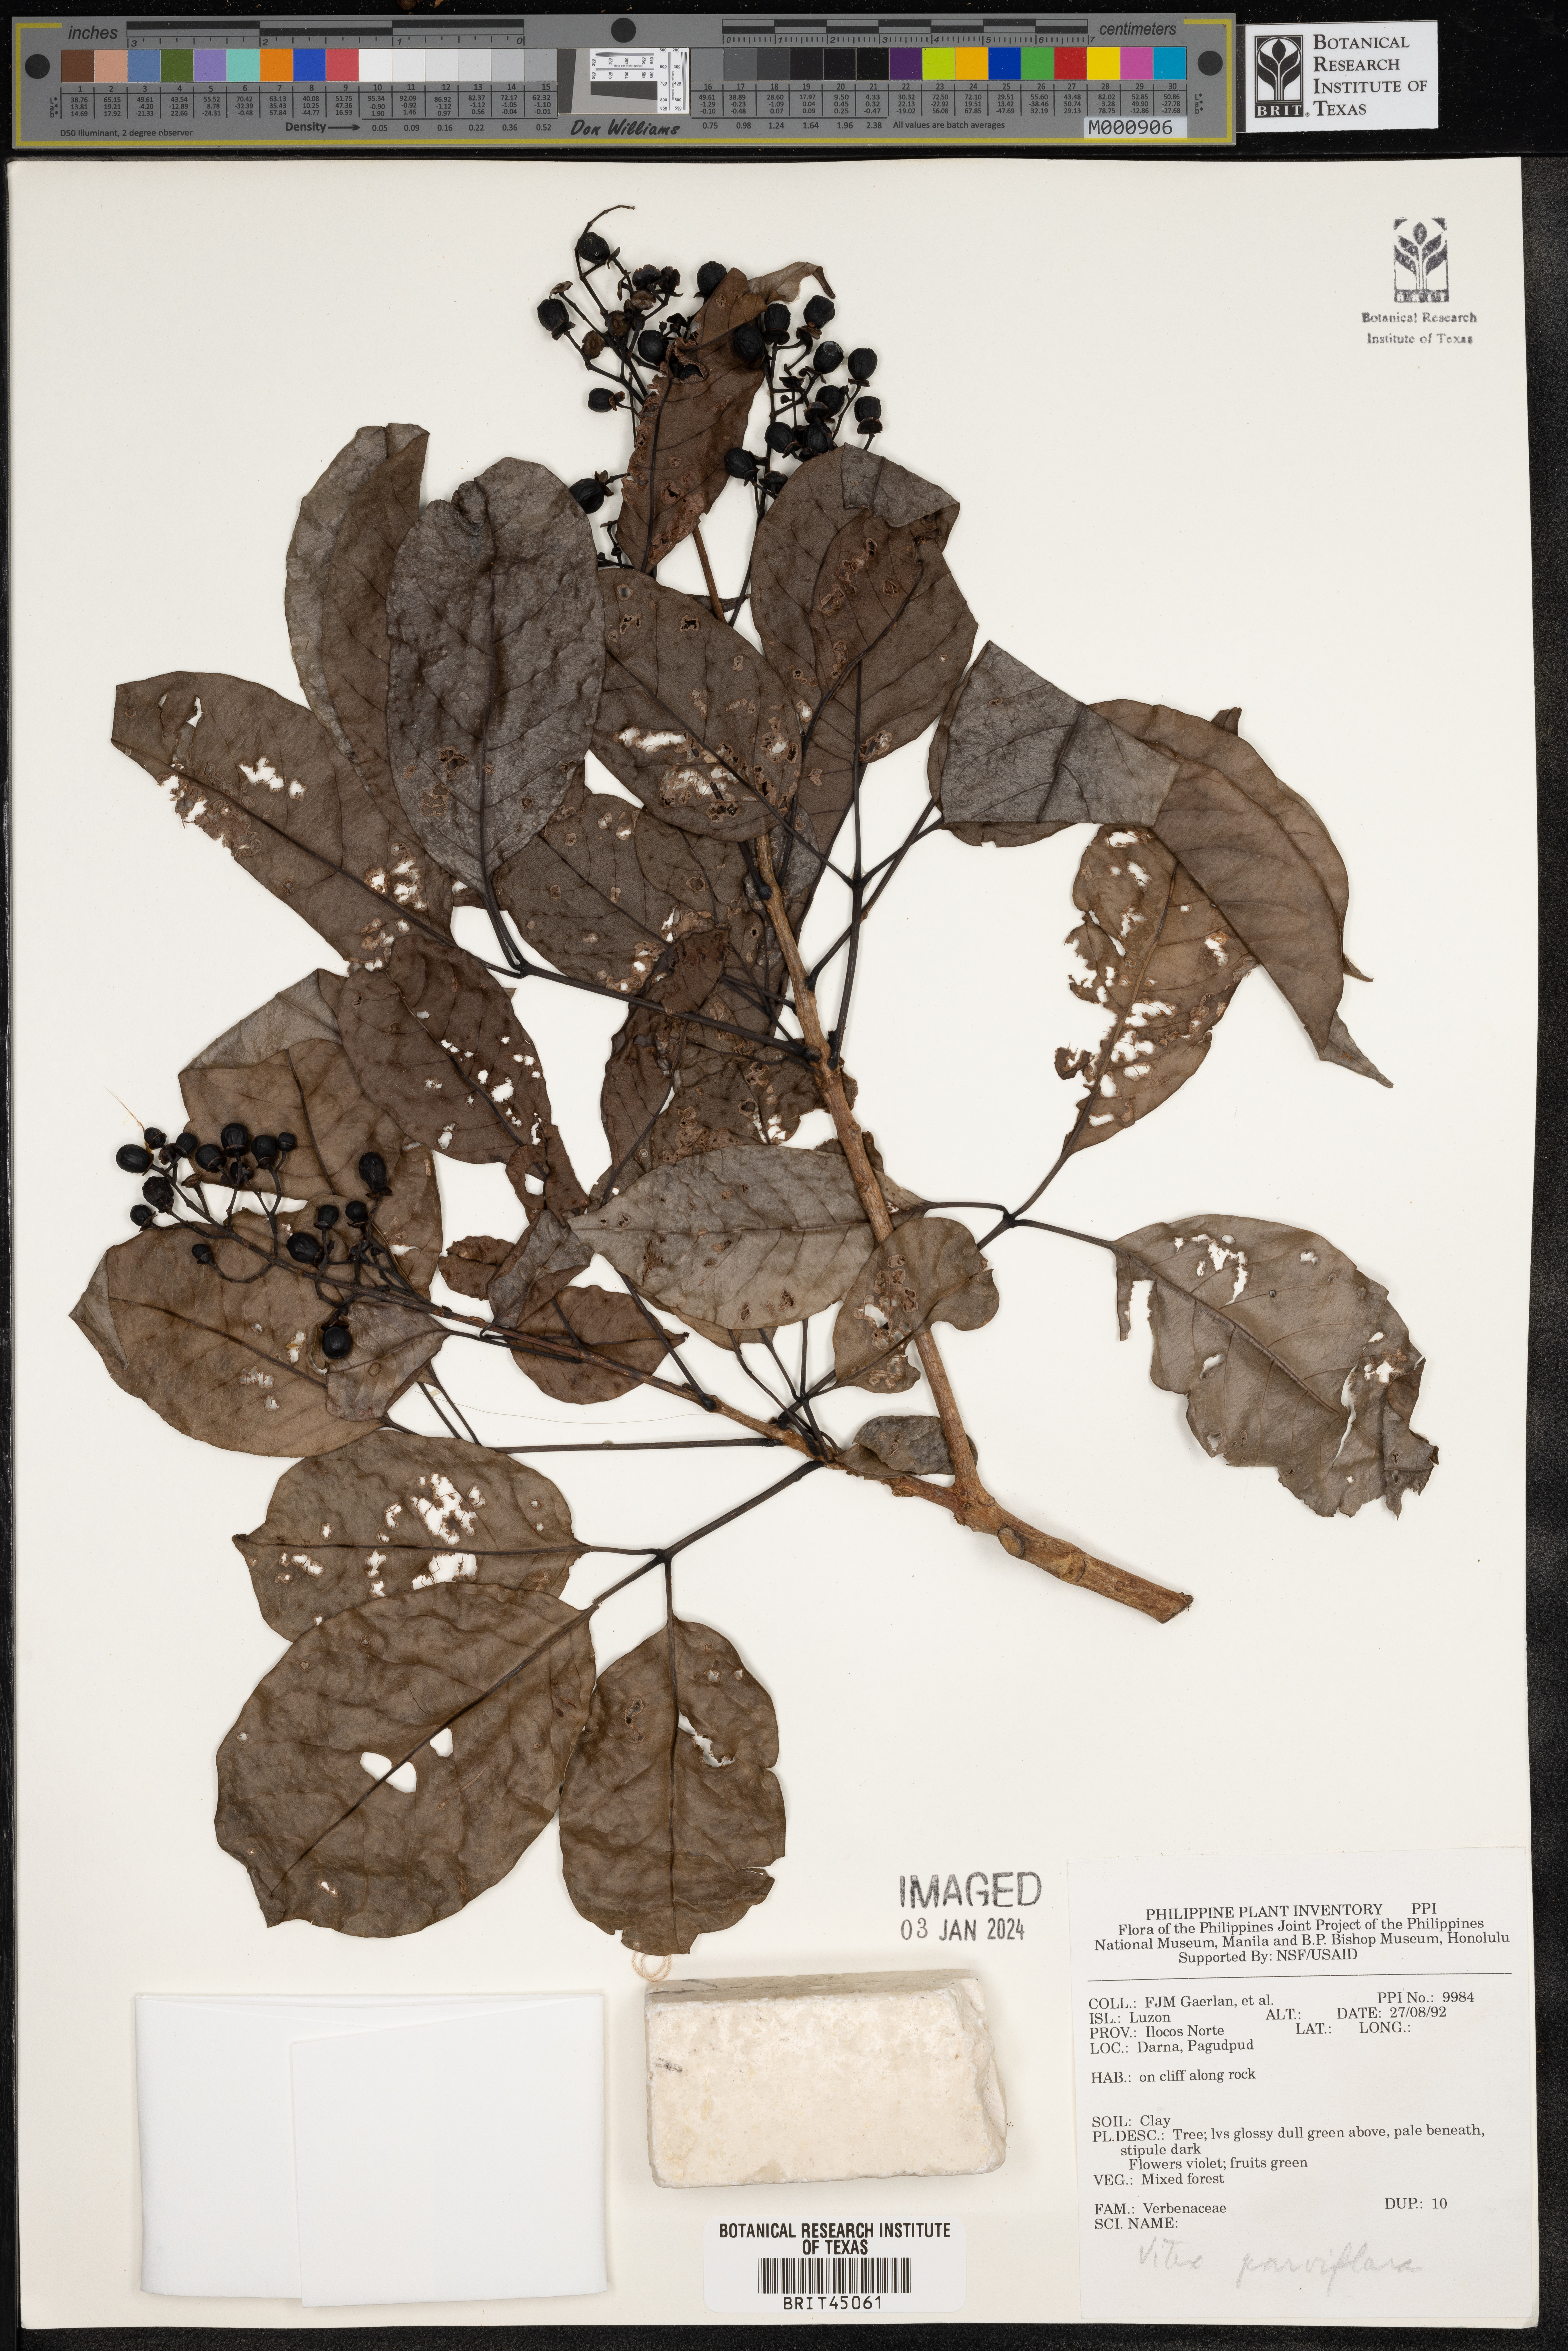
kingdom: Plantae
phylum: Tracheophyta
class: Magnoliopsida
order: Lamiales
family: Lamiaceae
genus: Vitex
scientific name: Vitex parviflora
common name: Smallflower chastetree
